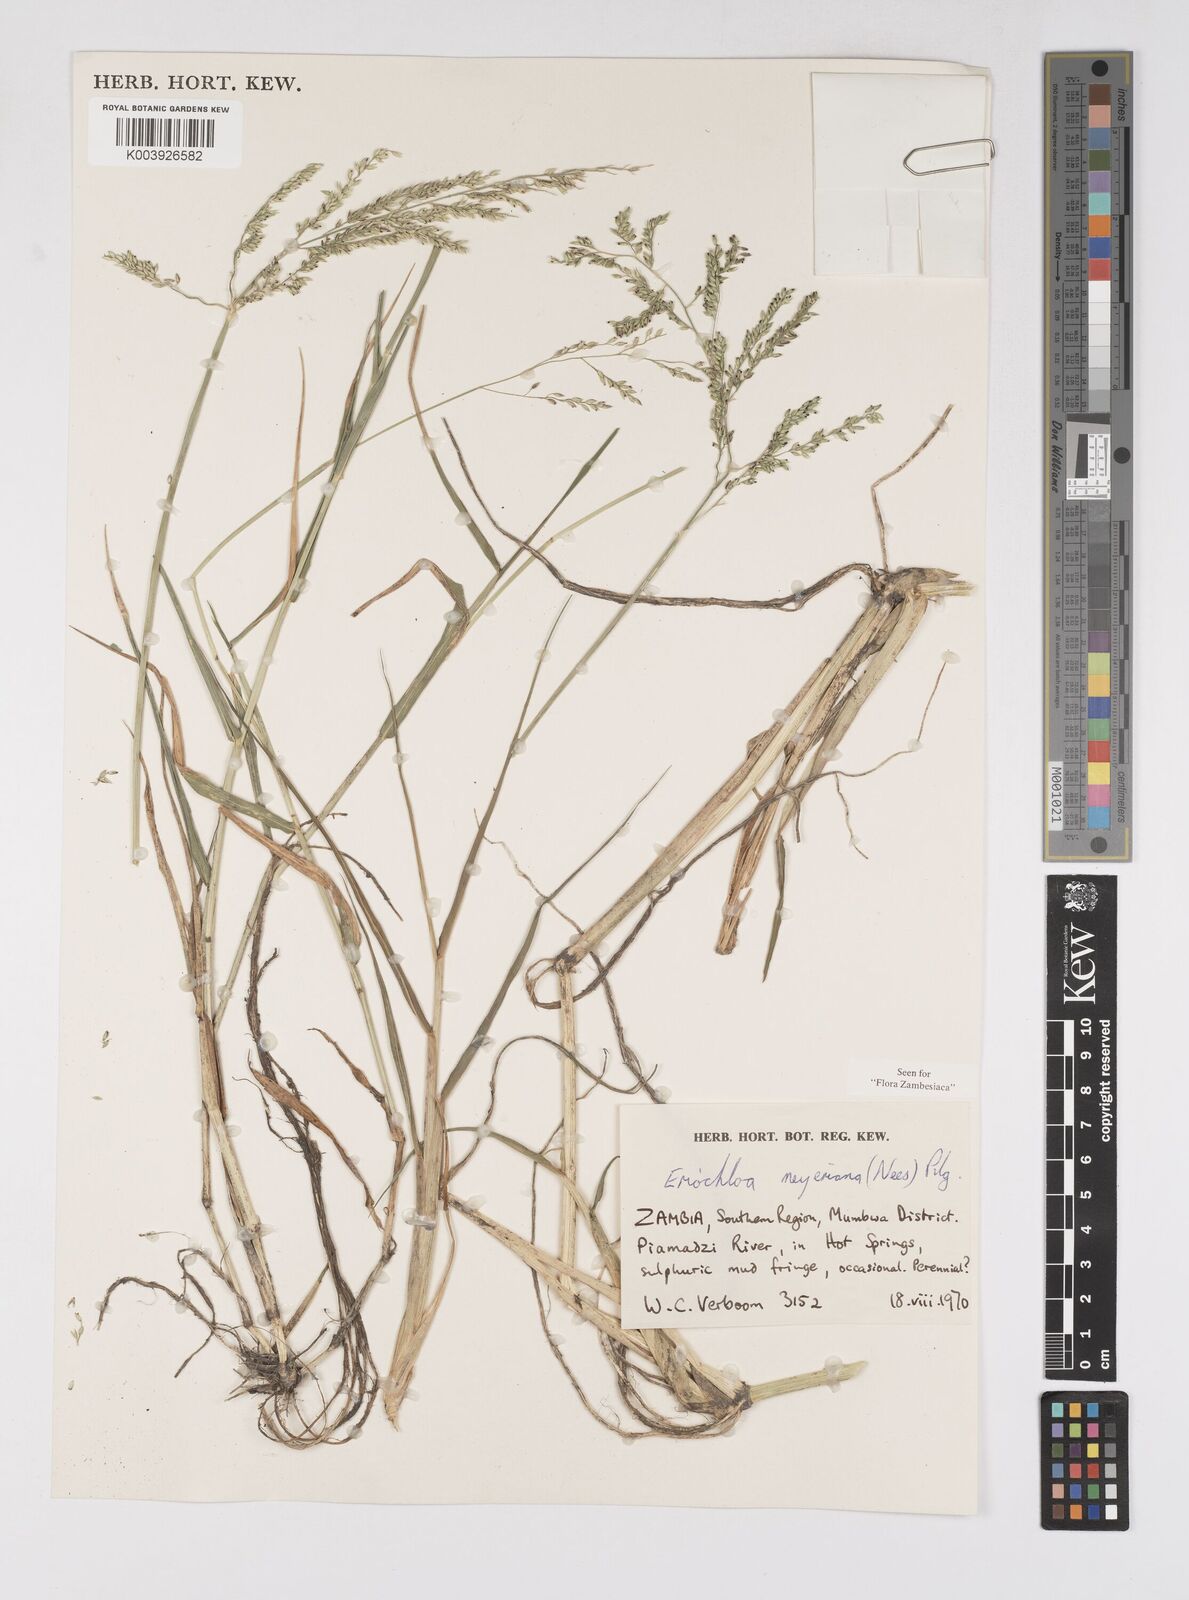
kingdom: Plantae
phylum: Tracheophyta
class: Liliopsida
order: Poales
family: Poaceae
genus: Eriochloa
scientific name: Eriochloa meyeriana
